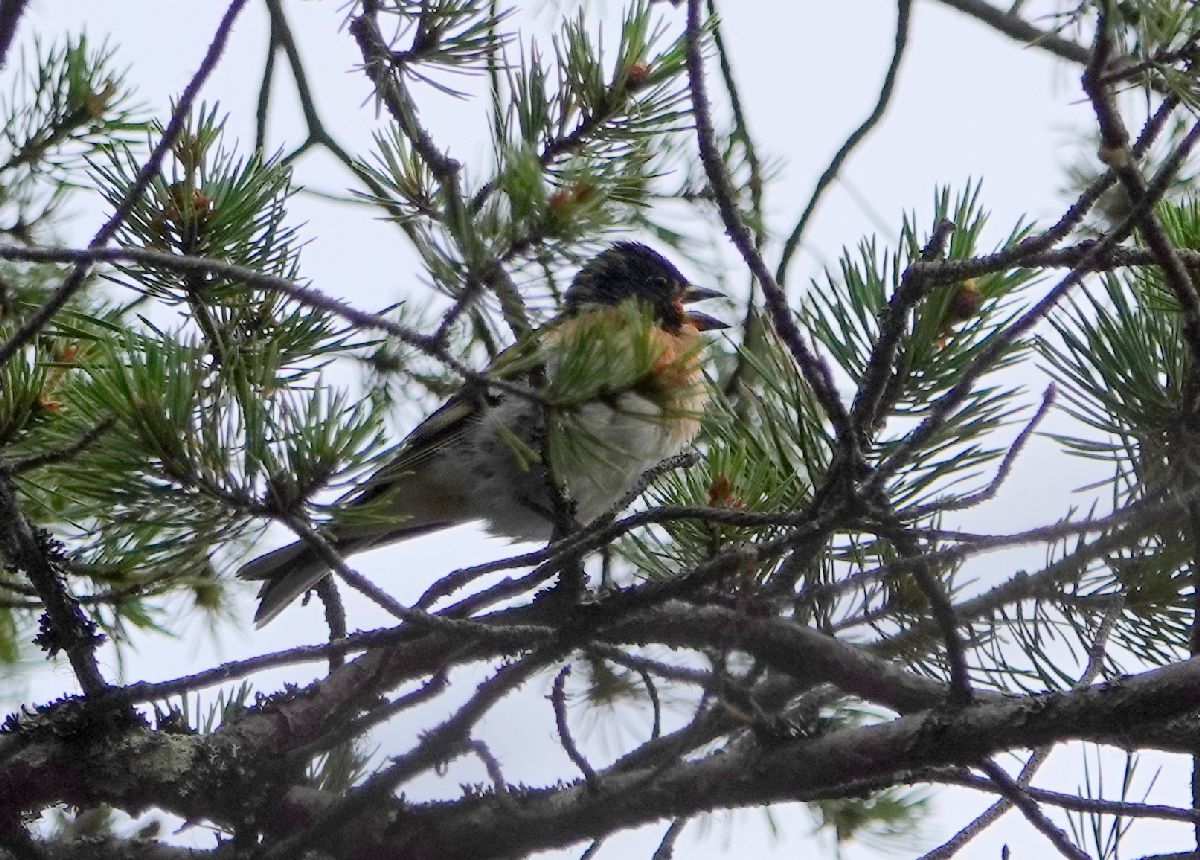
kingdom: Animalia
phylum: Chordata
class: Aves
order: Passeriformes
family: Fringillidae
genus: Fringilla
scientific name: Fringilla montifringilla
